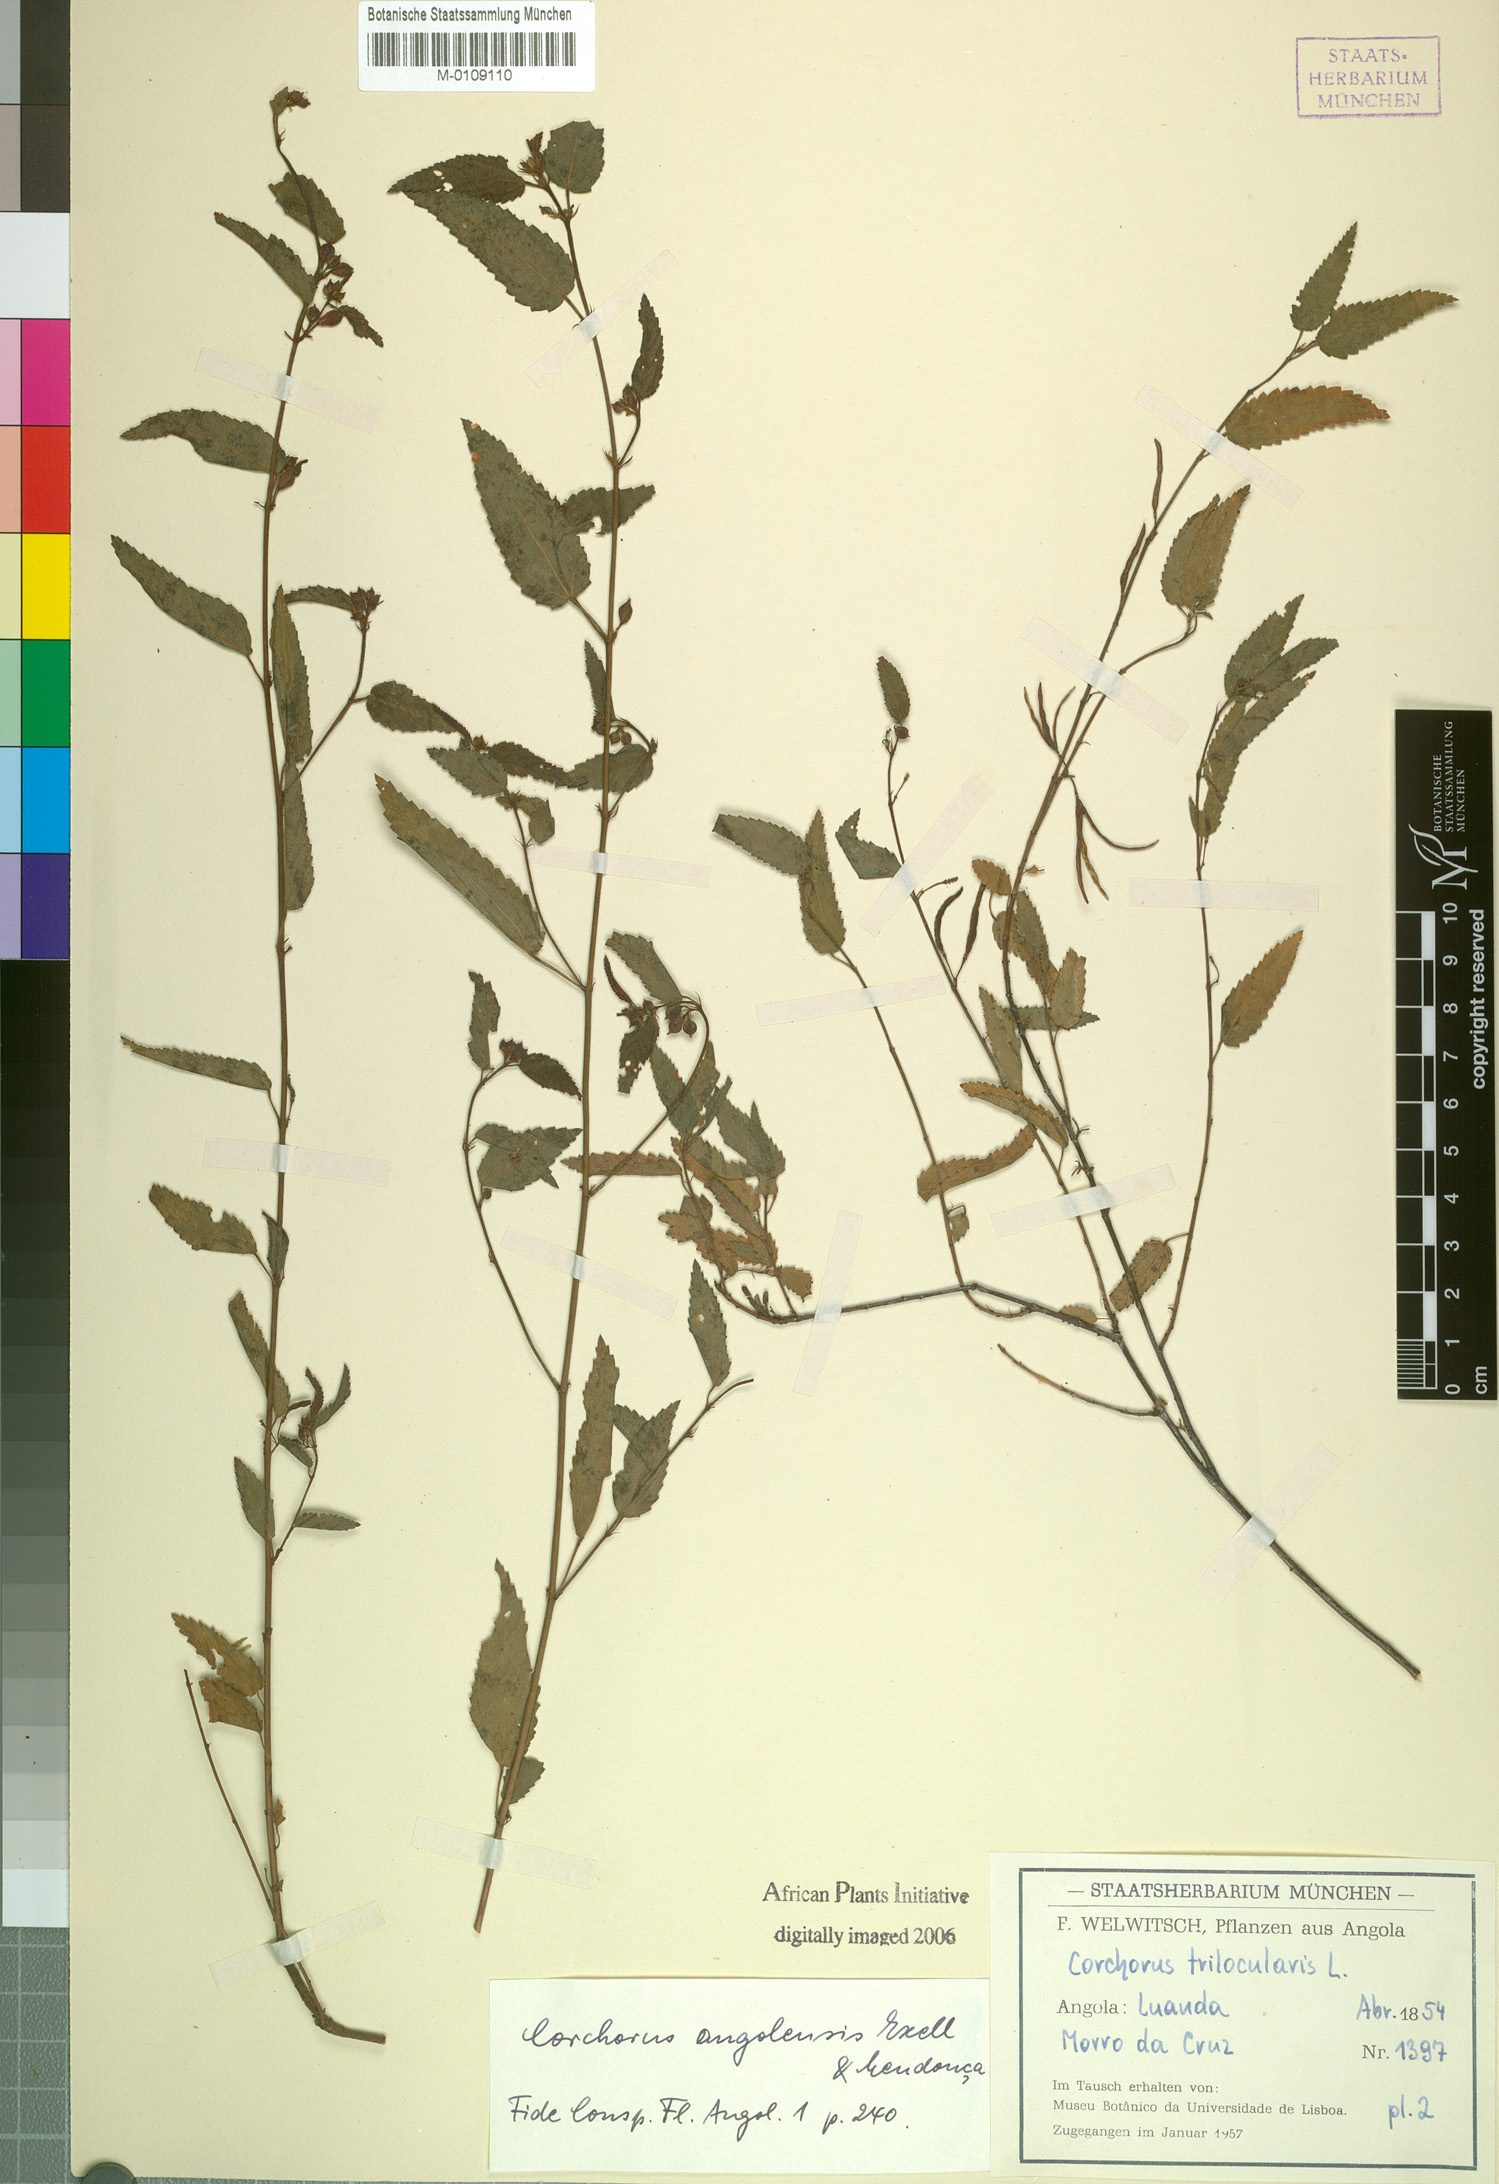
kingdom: Plantae
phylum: Tracheophyta
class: Magnoliopsida
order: Malvales
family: Malvaceae
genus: Corchorus
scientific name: Corchorus angolensis
